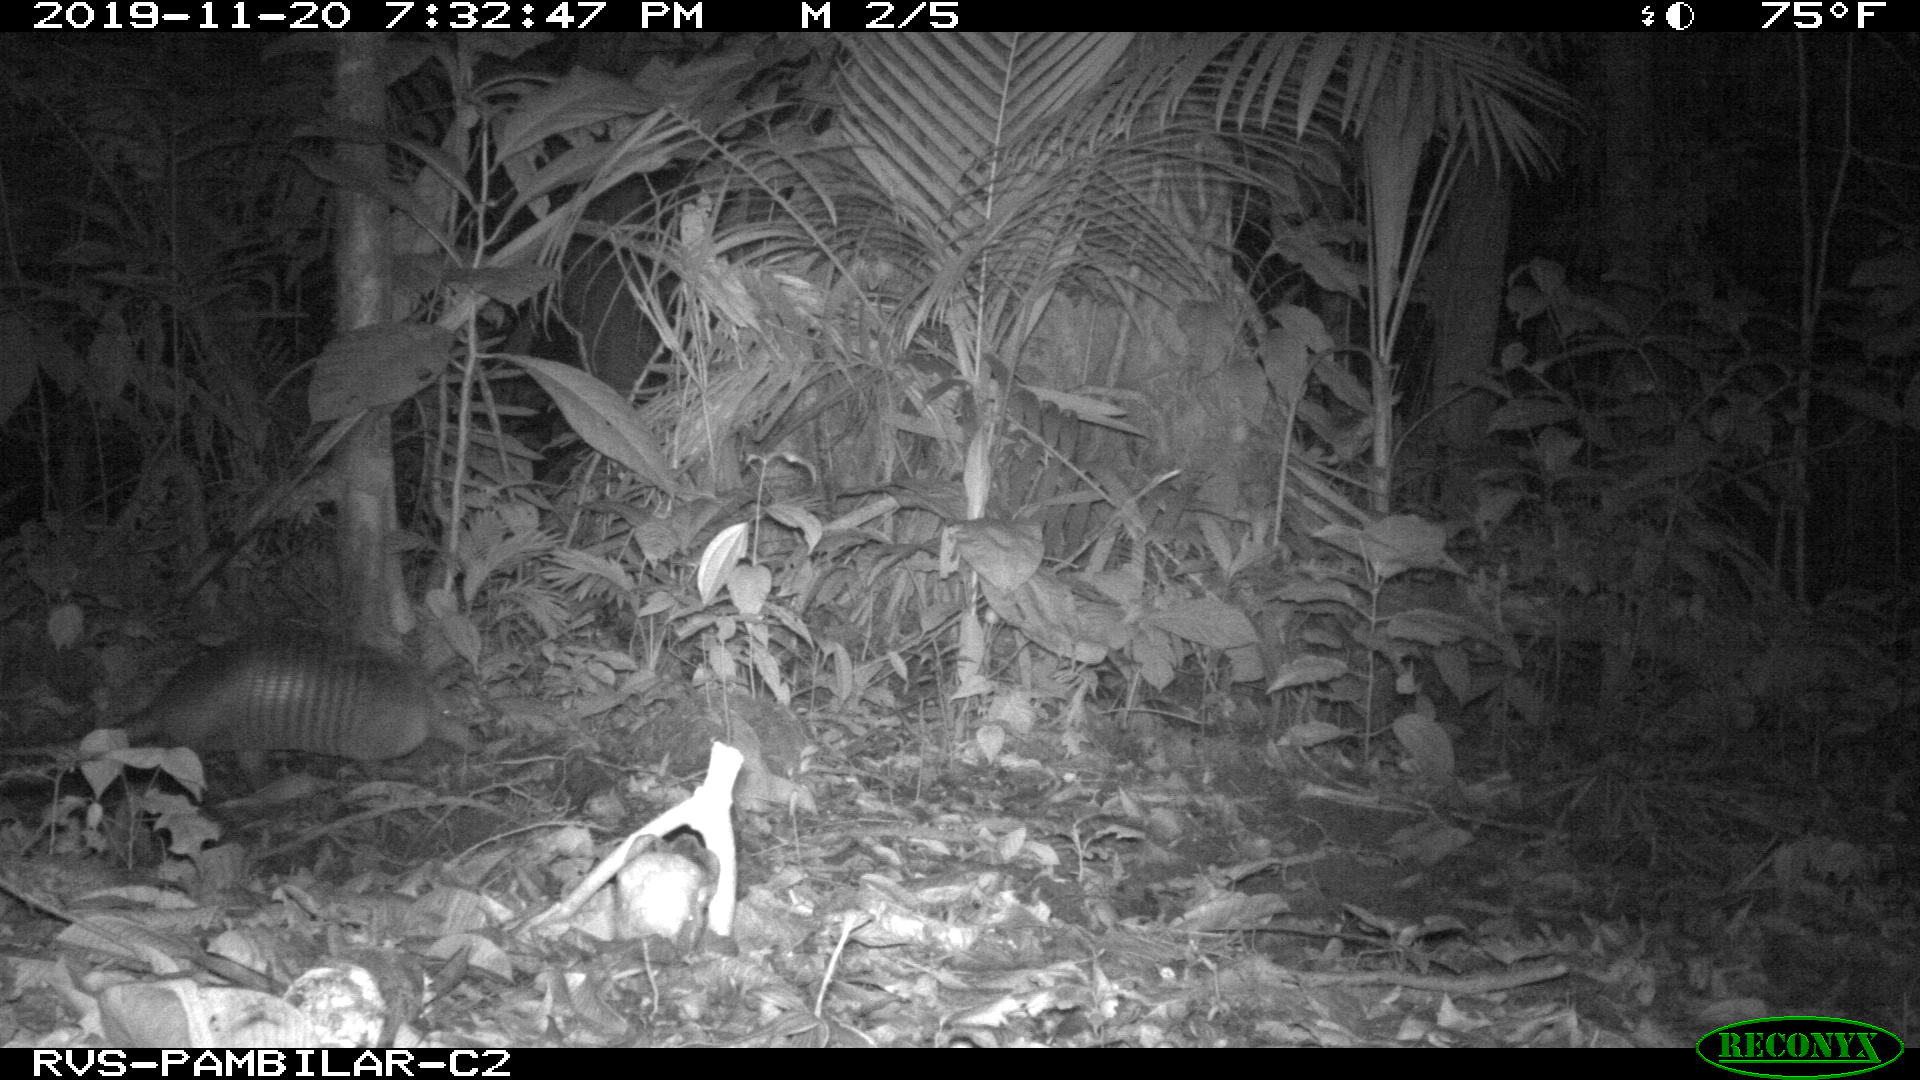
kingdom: Animalia
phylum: Chordata
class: Mammalia
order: Cingulata
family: Dasypodidae
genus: Dasypus
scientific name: Dasypus novemcinctus
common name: Nine-banded armadillo
